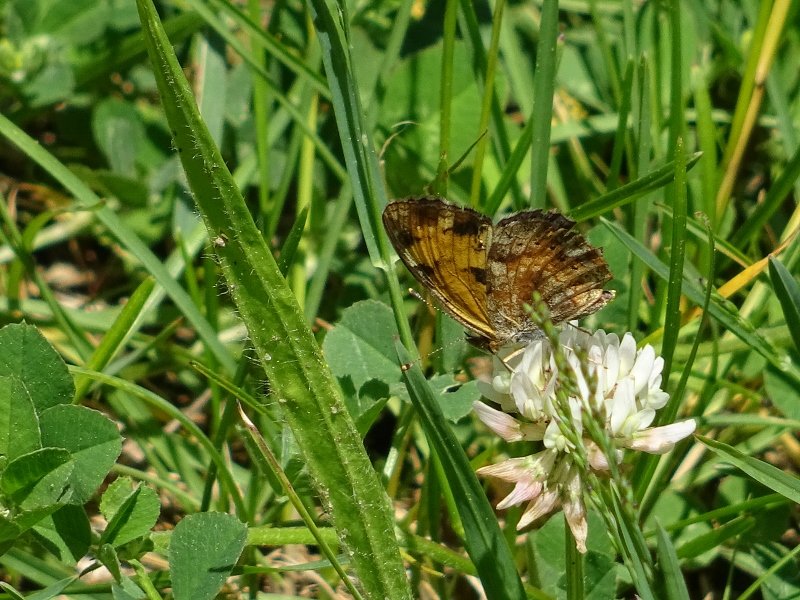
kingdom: Animalia
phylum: Arthropoda
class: Insecta
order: Lepidoptera
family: Nymphalidae
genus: Phyciodes
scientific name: Phyciodes tharos
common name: Northern Crescent
